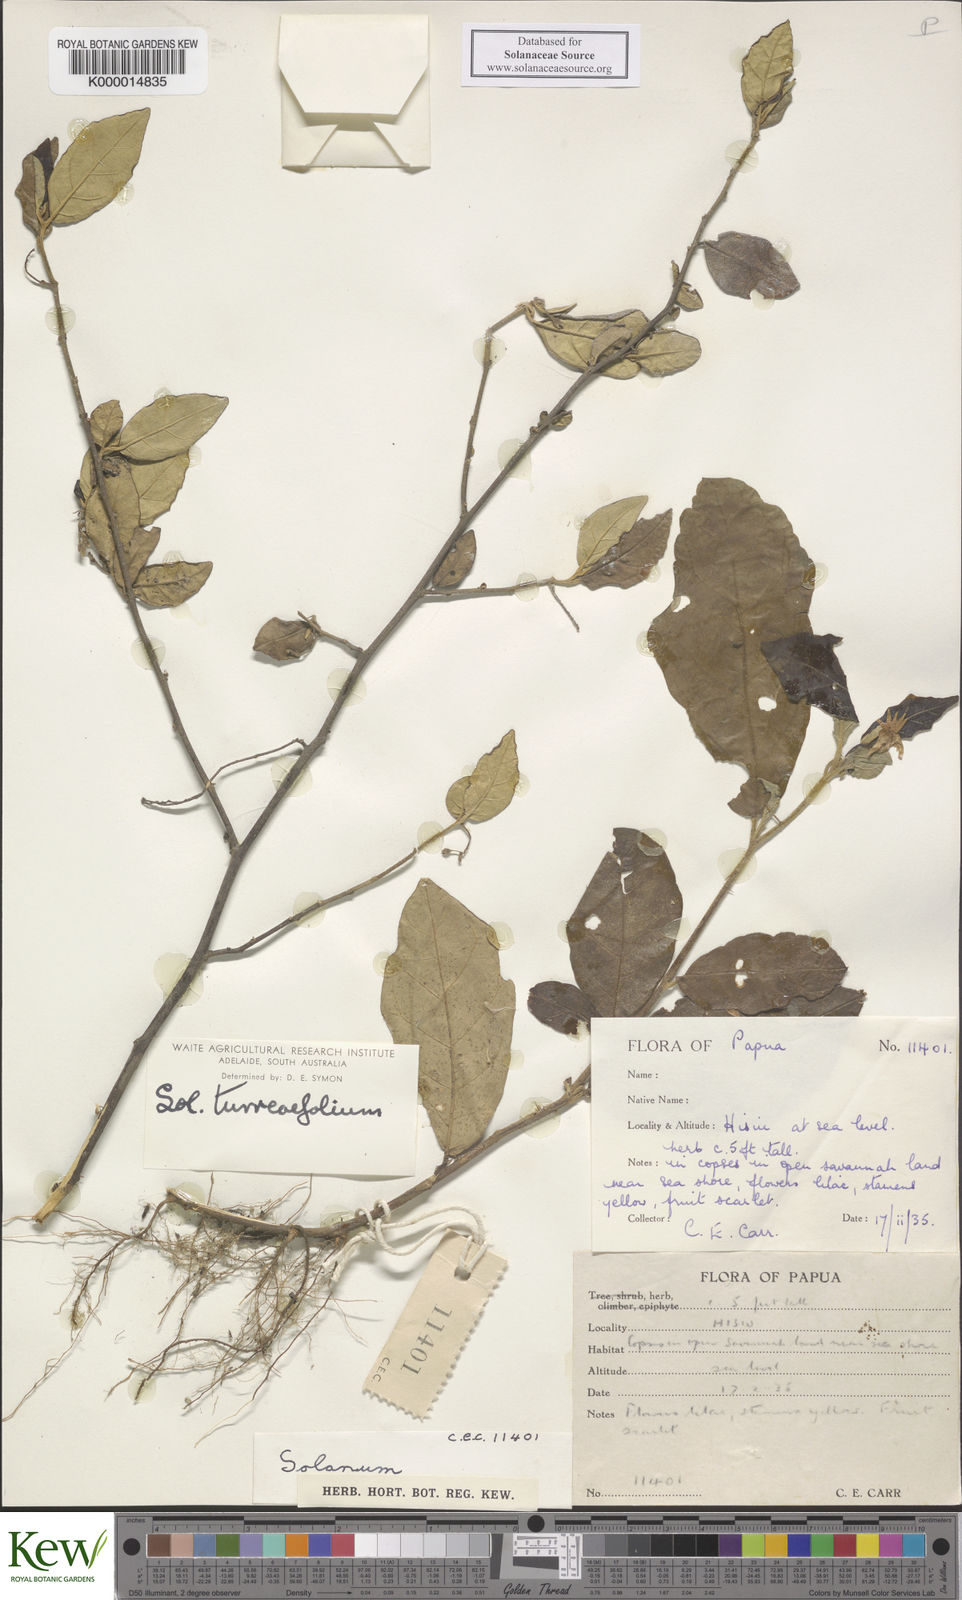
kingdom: Plantae
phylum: Tracheophyta
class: Magnoliopsida
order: Solanales
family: Solanaceae
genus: Solanum
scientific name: Solanum discolor
